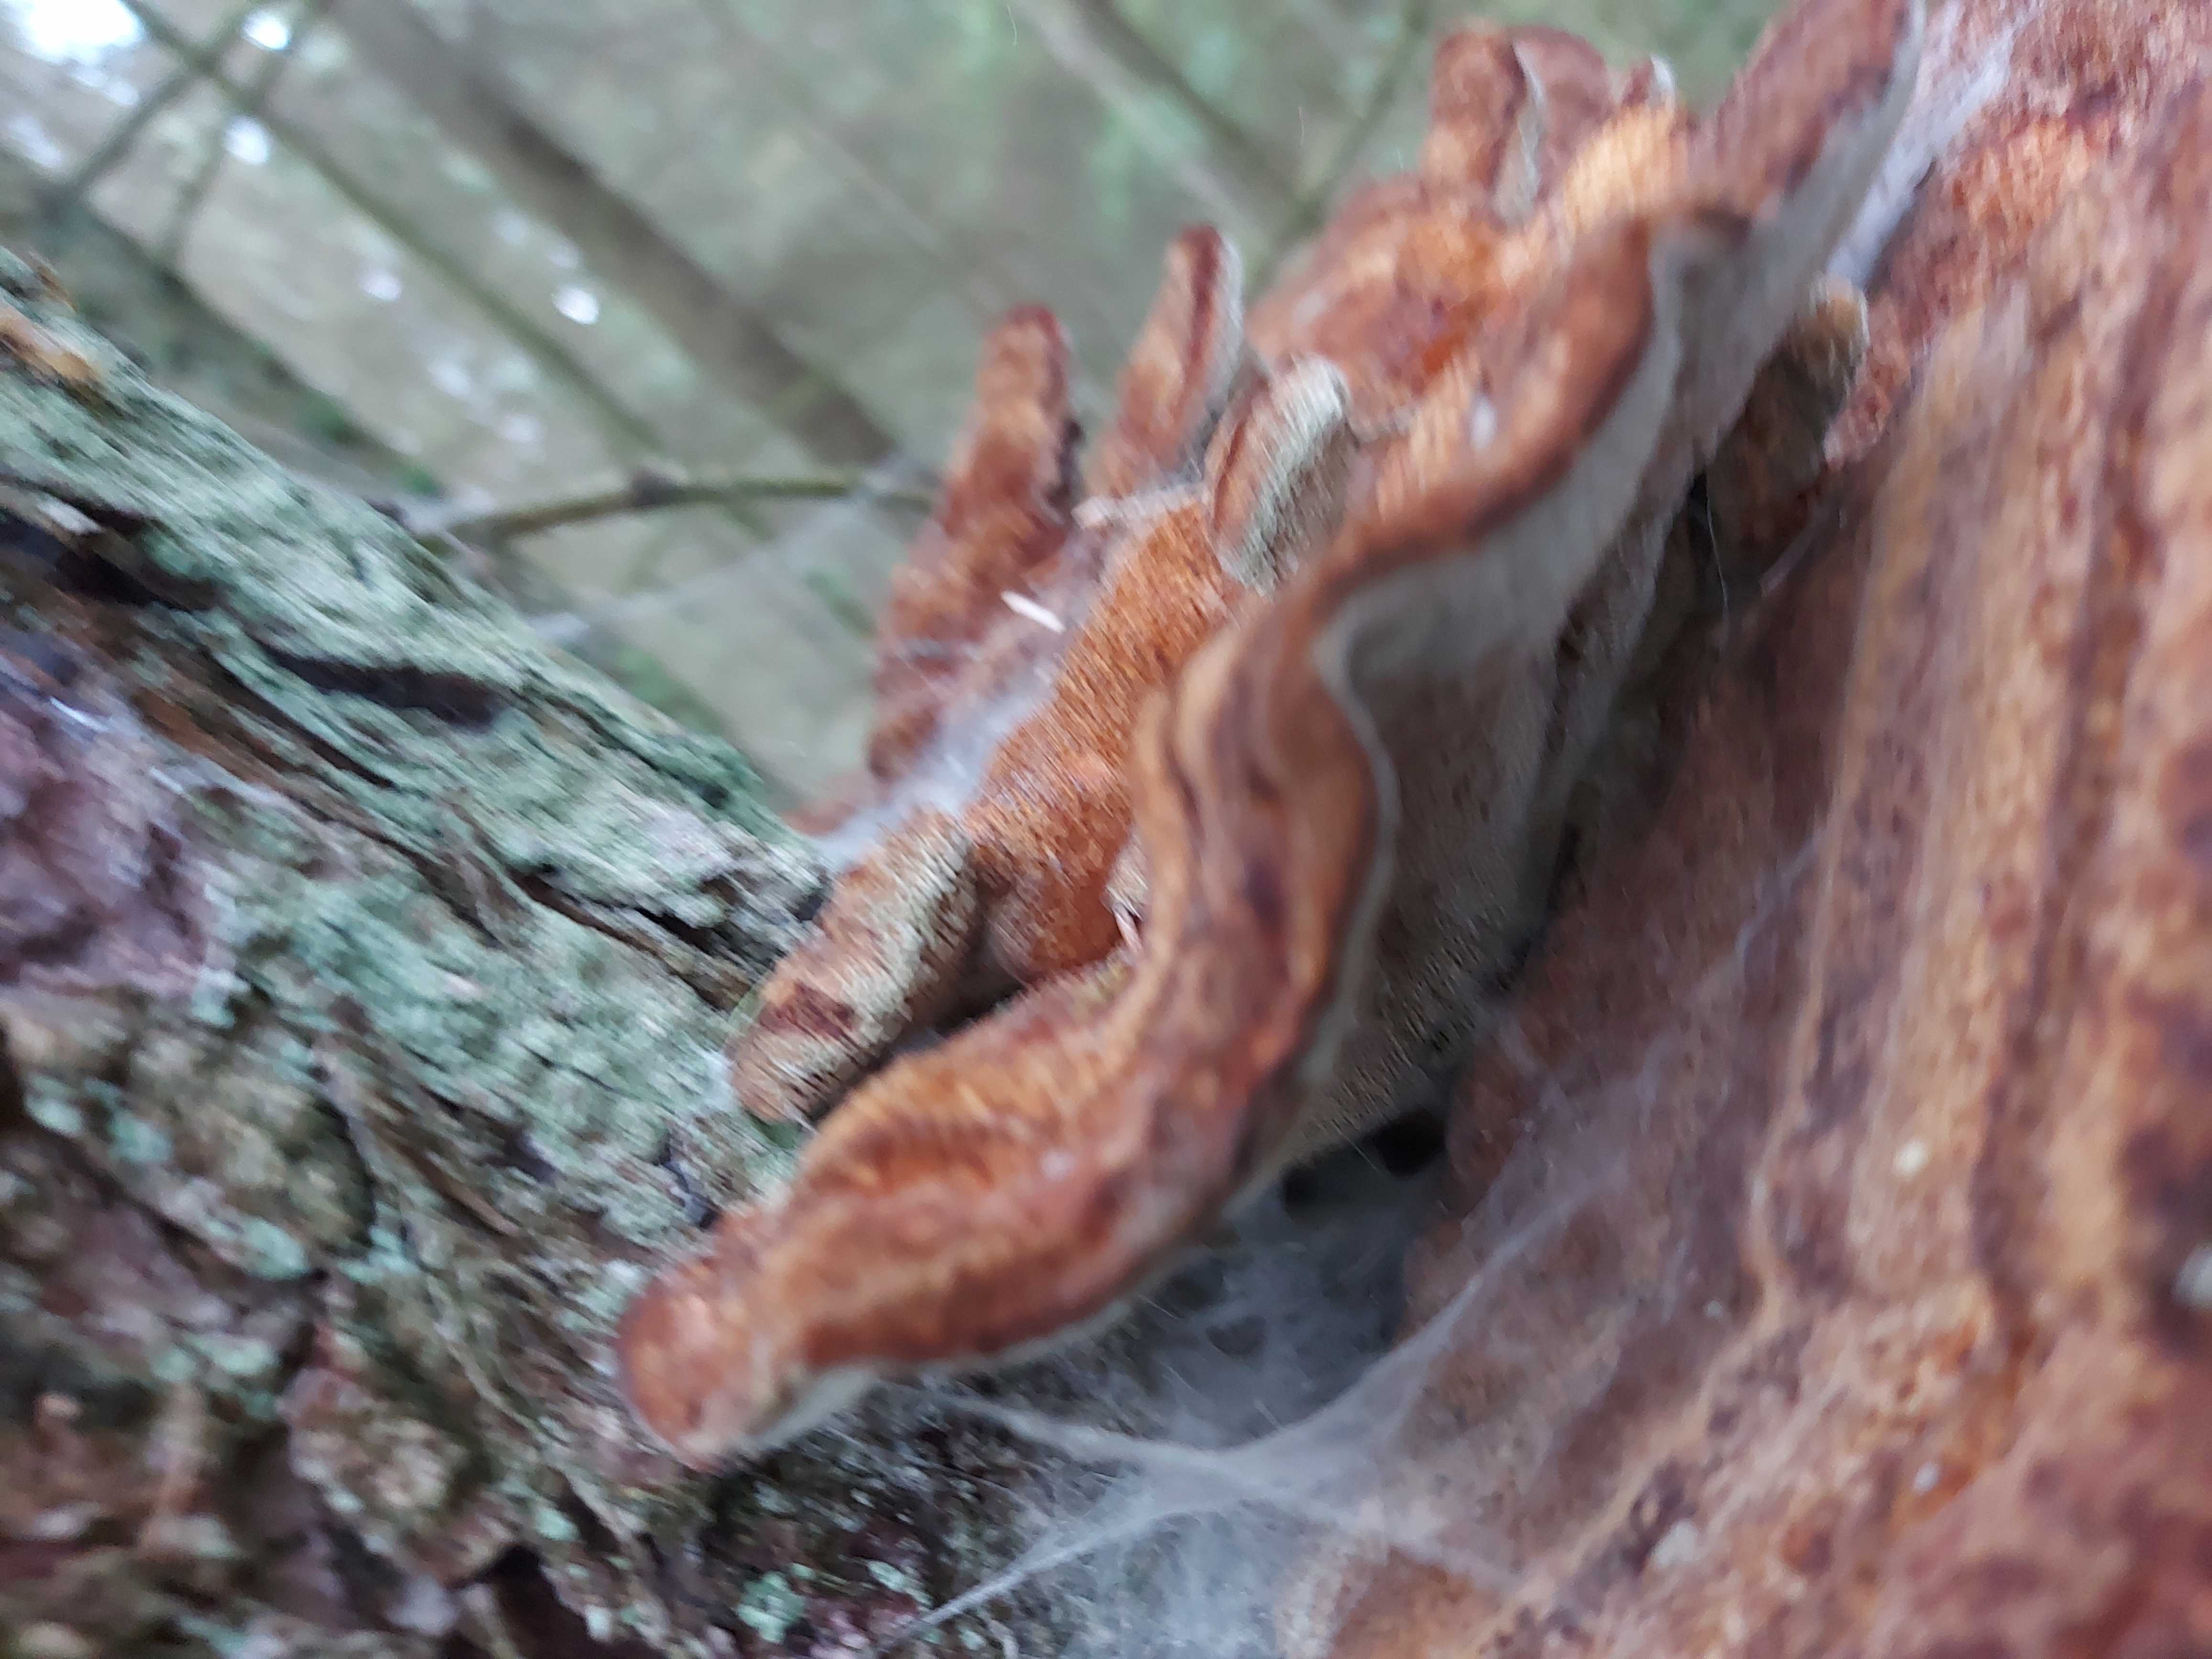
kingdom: Fungi
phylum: Basidiomycota
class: Agaricomycetes
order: Polyporales
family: Laetiporaceae
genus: Phaeolus
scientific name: Phaeolus schweinitzii
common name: brunporesvamp
